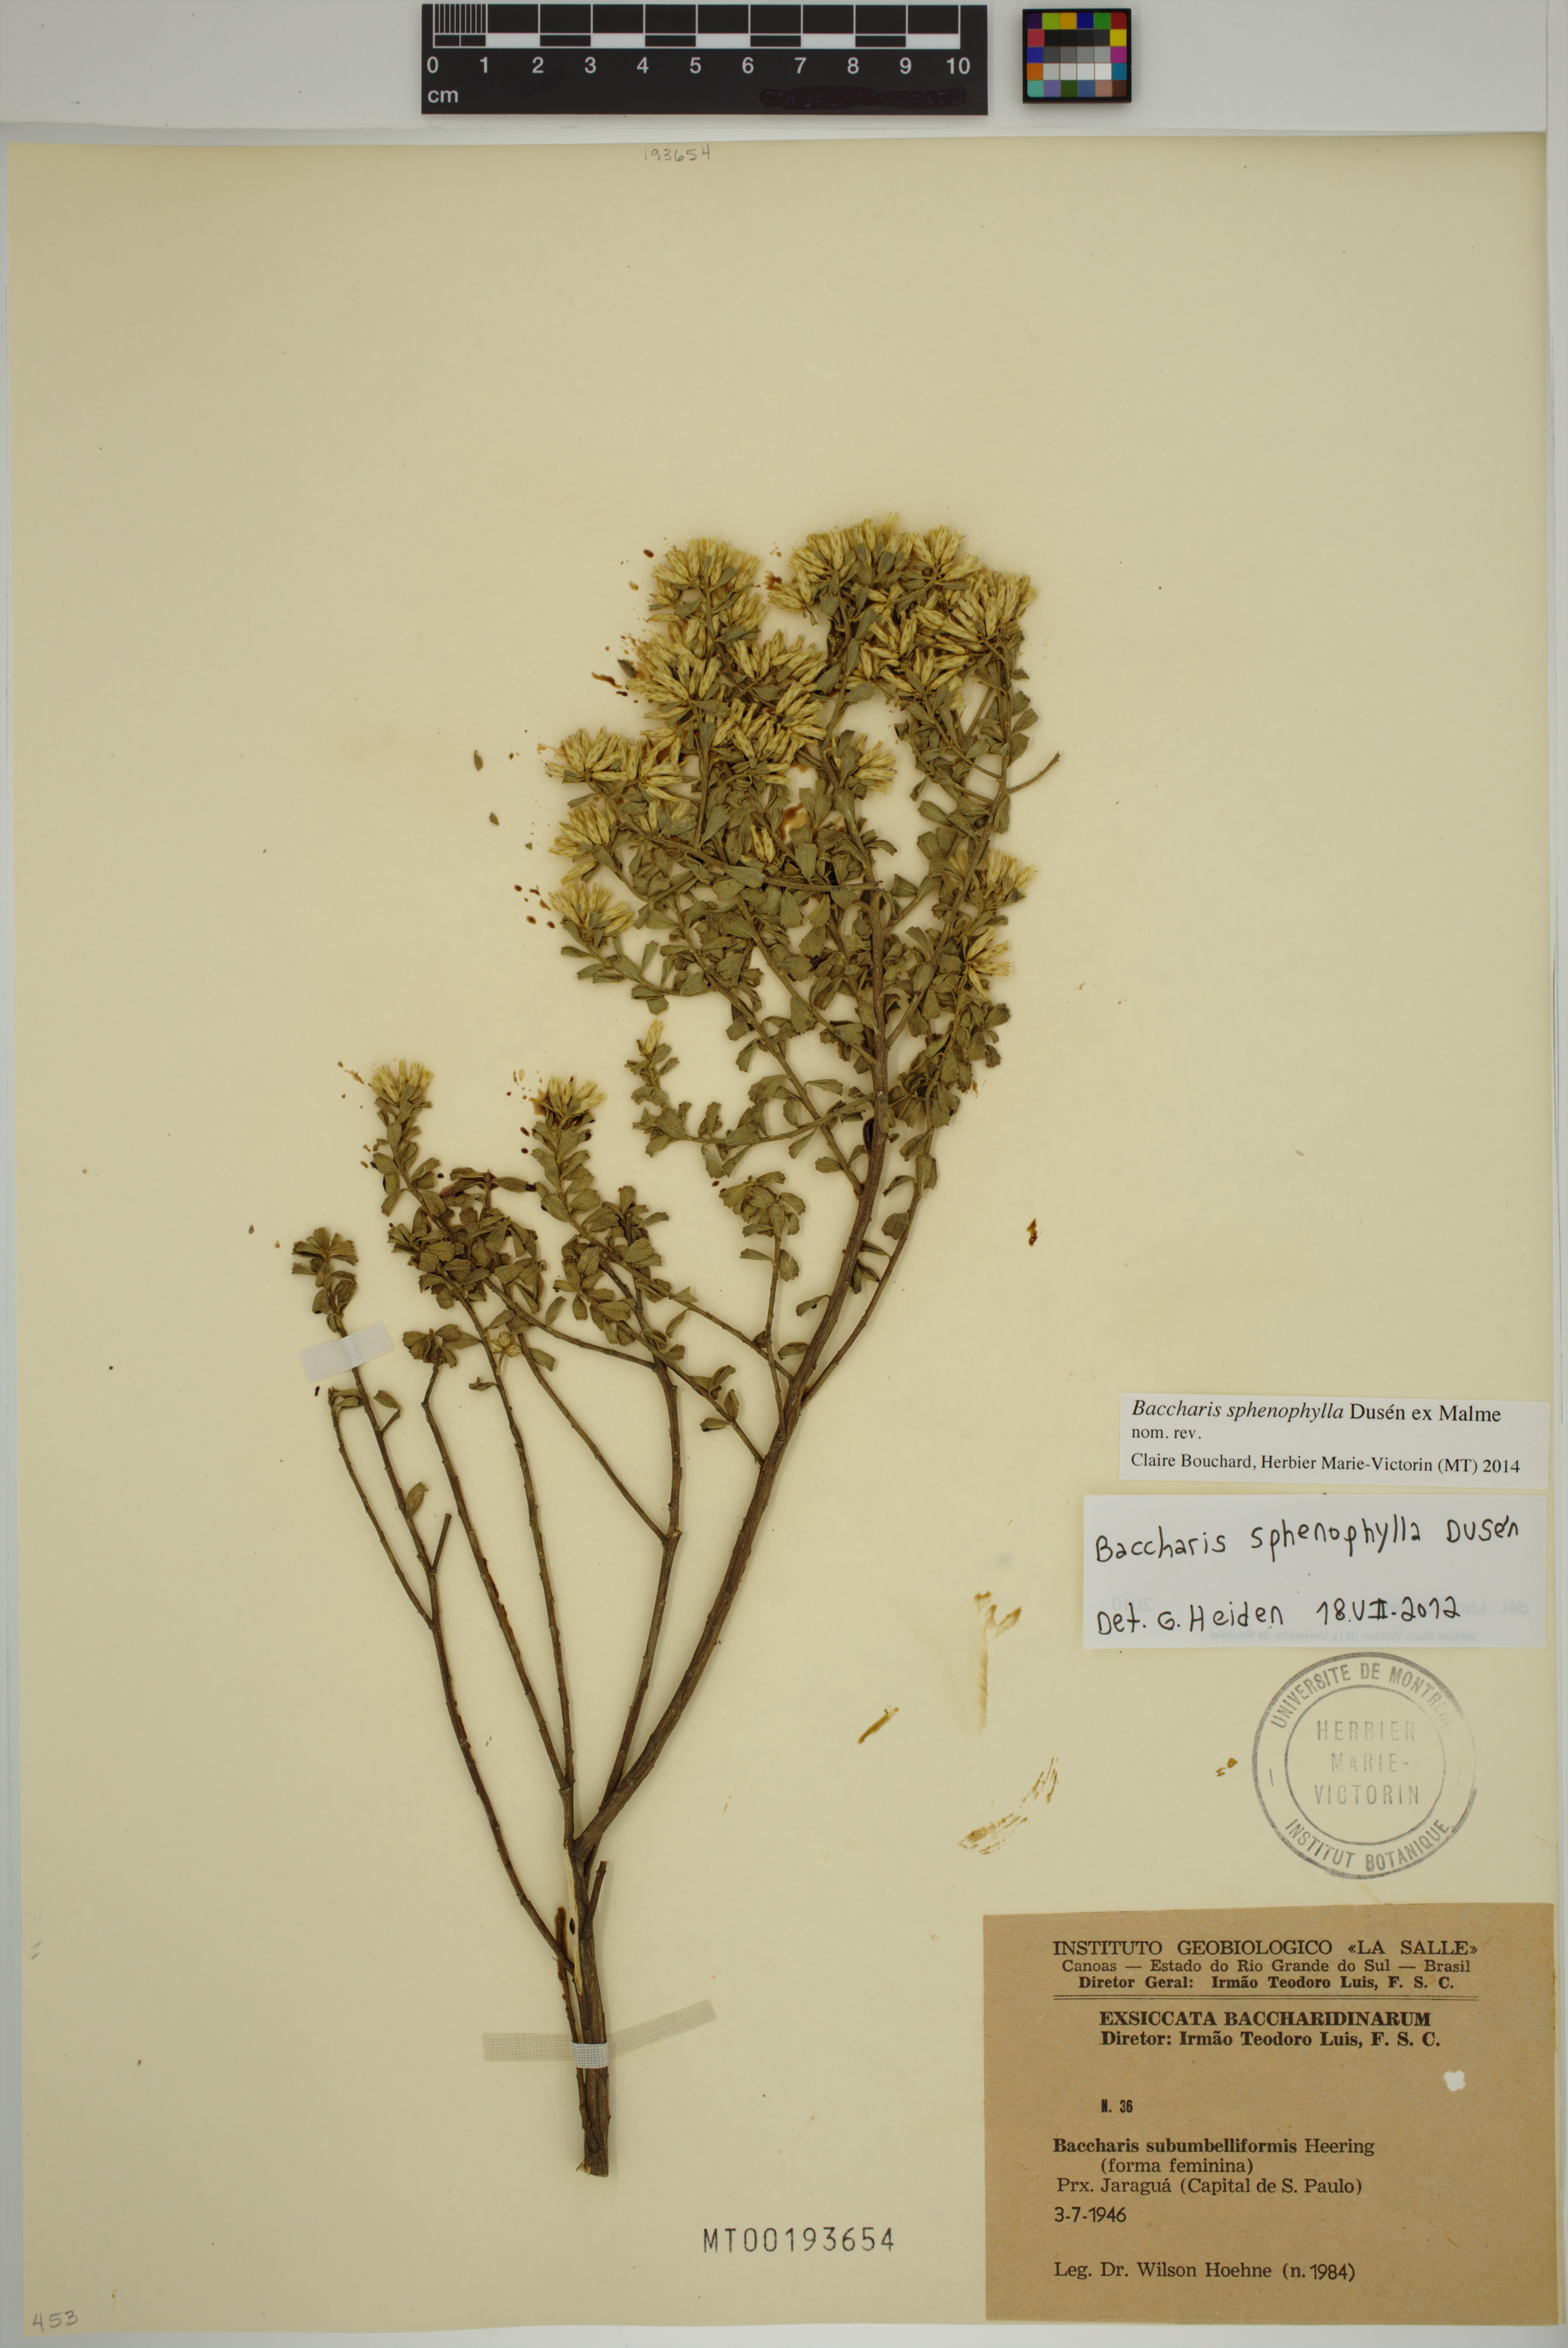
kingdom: Plantae
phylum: Tracheophyta
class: Magnoliopsida
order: Asterales
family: Asteraceae
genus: Baccharis
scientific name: Baccharis pentziifolia
